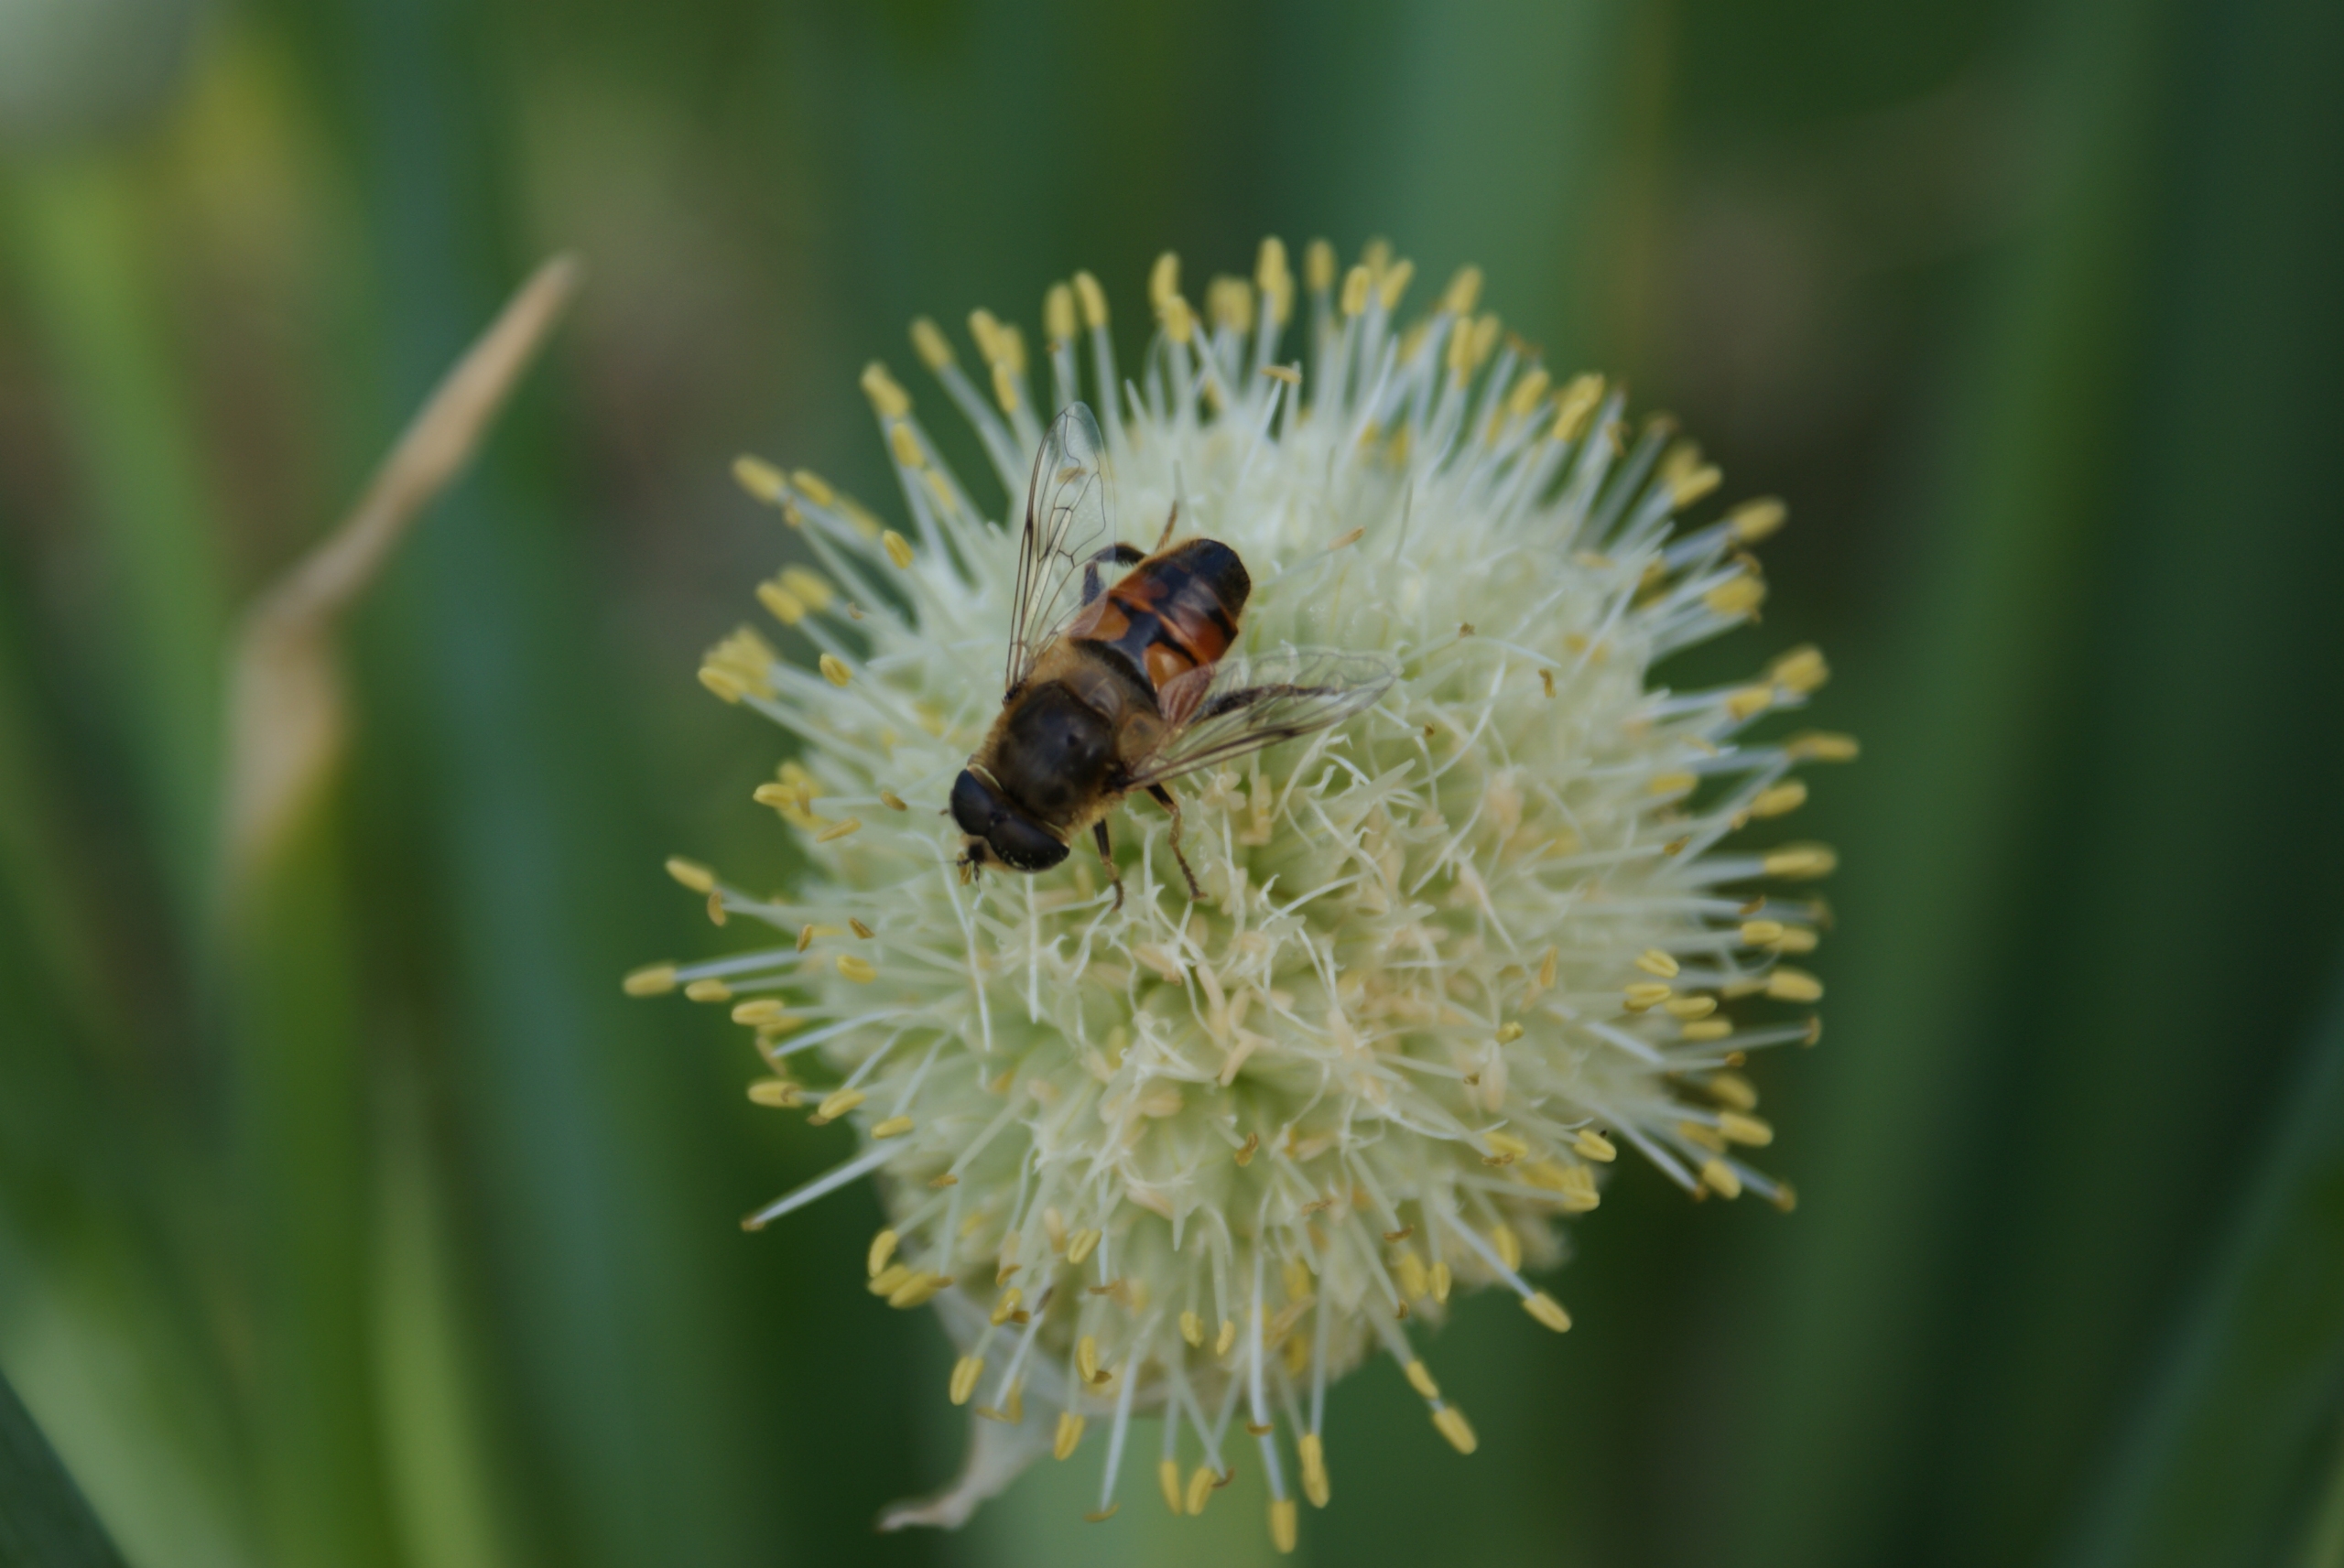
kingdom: Animalia
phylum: Arthropoda
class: Insecta
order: Diptera
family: Syrphidae
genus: Eristalis
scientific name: Eristalis tenax
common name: Droneflue
